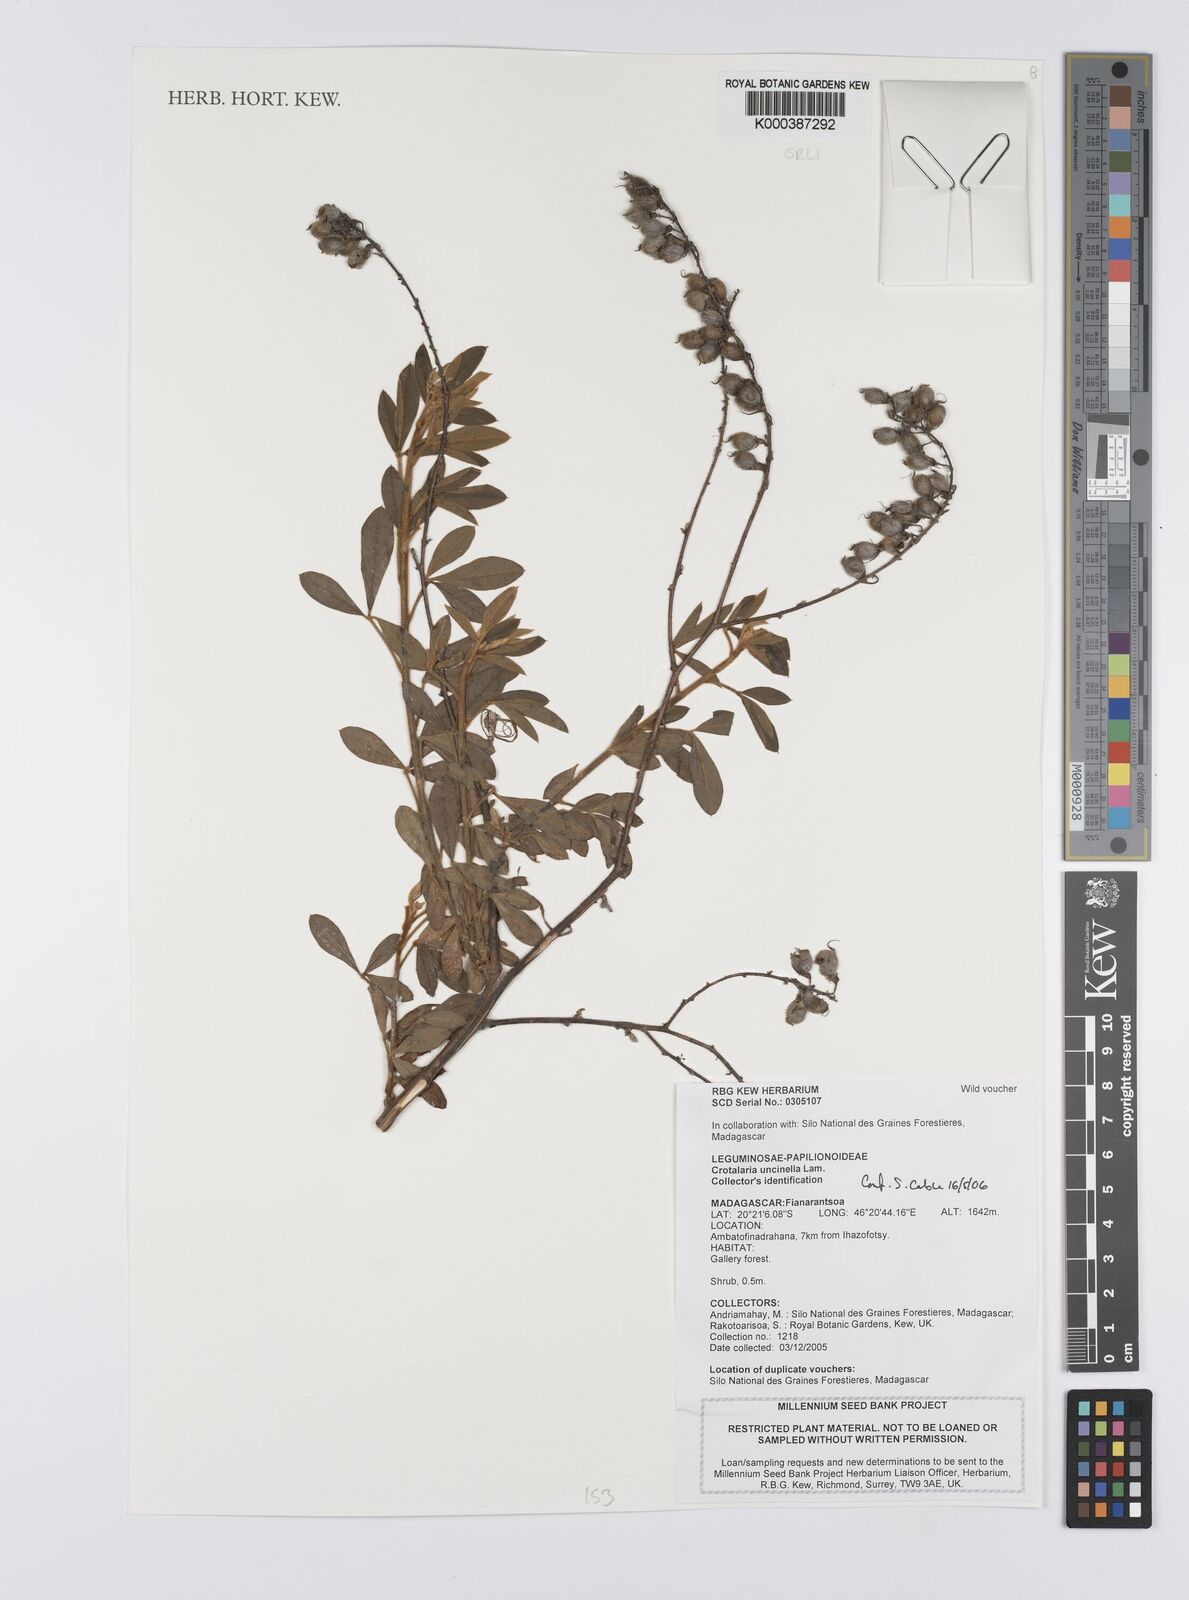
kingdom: Plantae
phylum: Tracheophyta
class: Magnoliopsida
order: Fabales
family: Fabaceae
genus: Crotalaria
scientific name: Crotalaria uncinella
